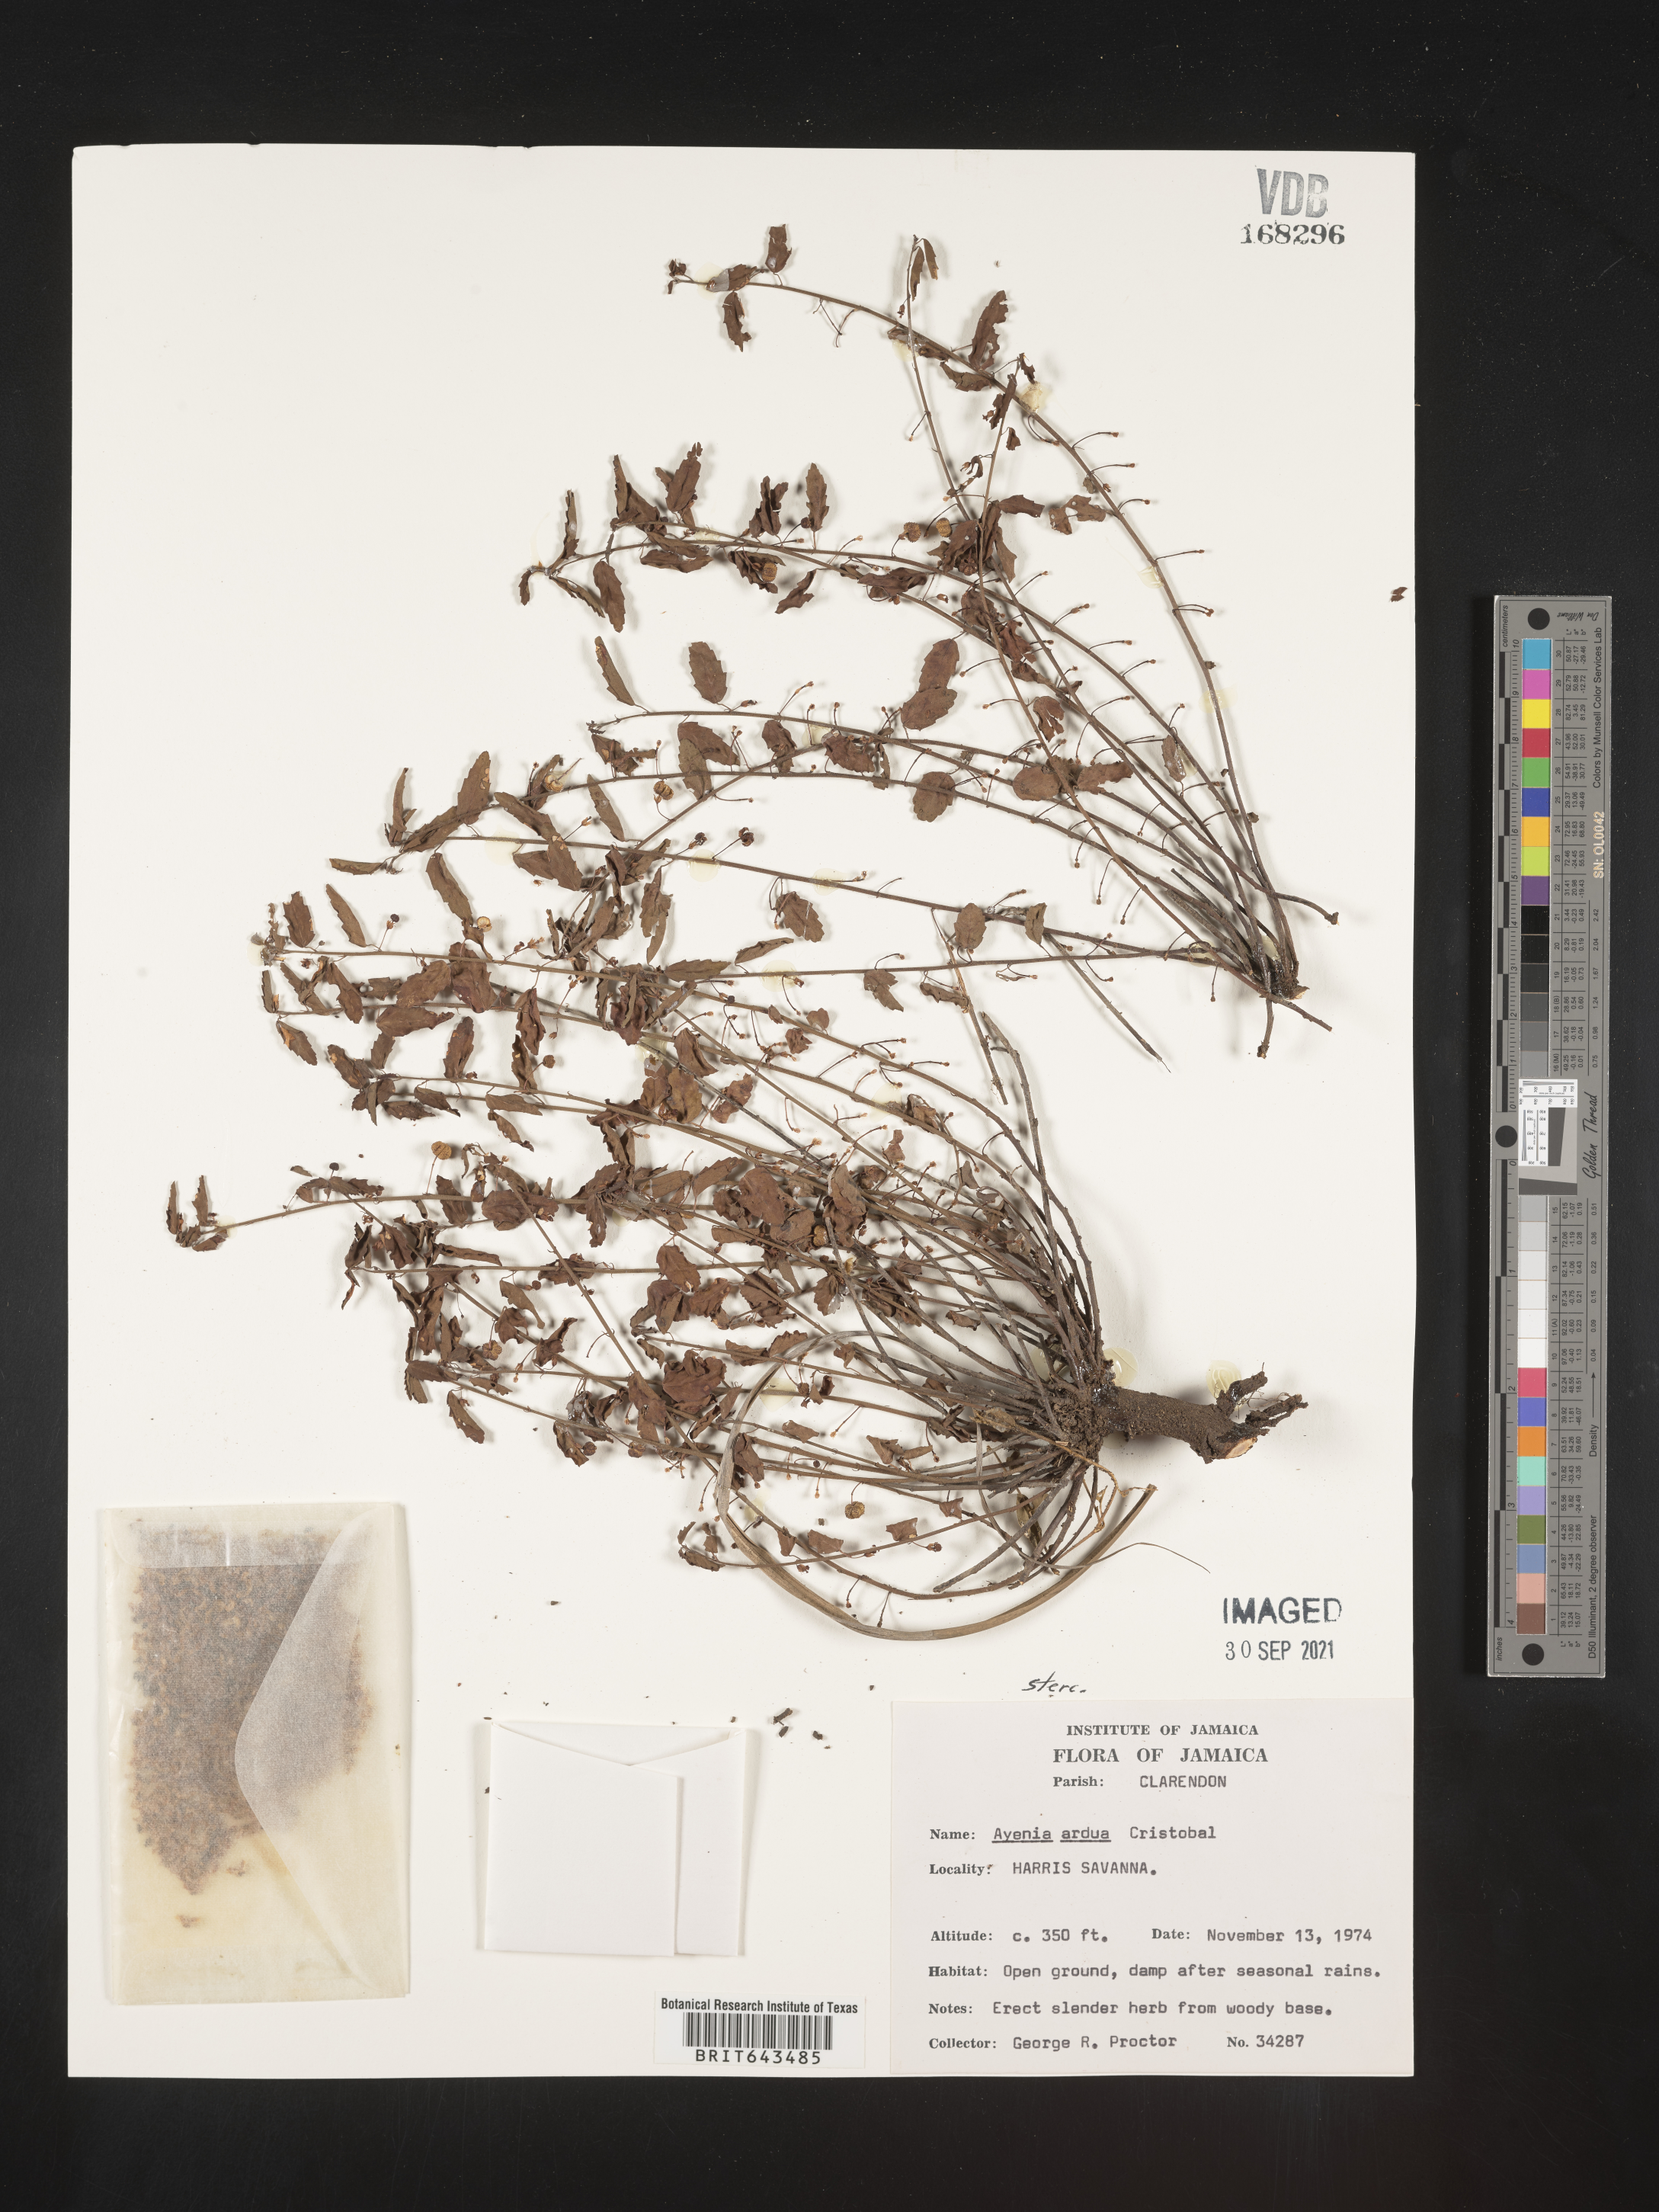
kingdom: Plantae
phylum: Tracheophyta
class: Magnoliopsida
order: Malvales
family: Malvaceae
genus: Ayenia
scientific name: Ayenia
